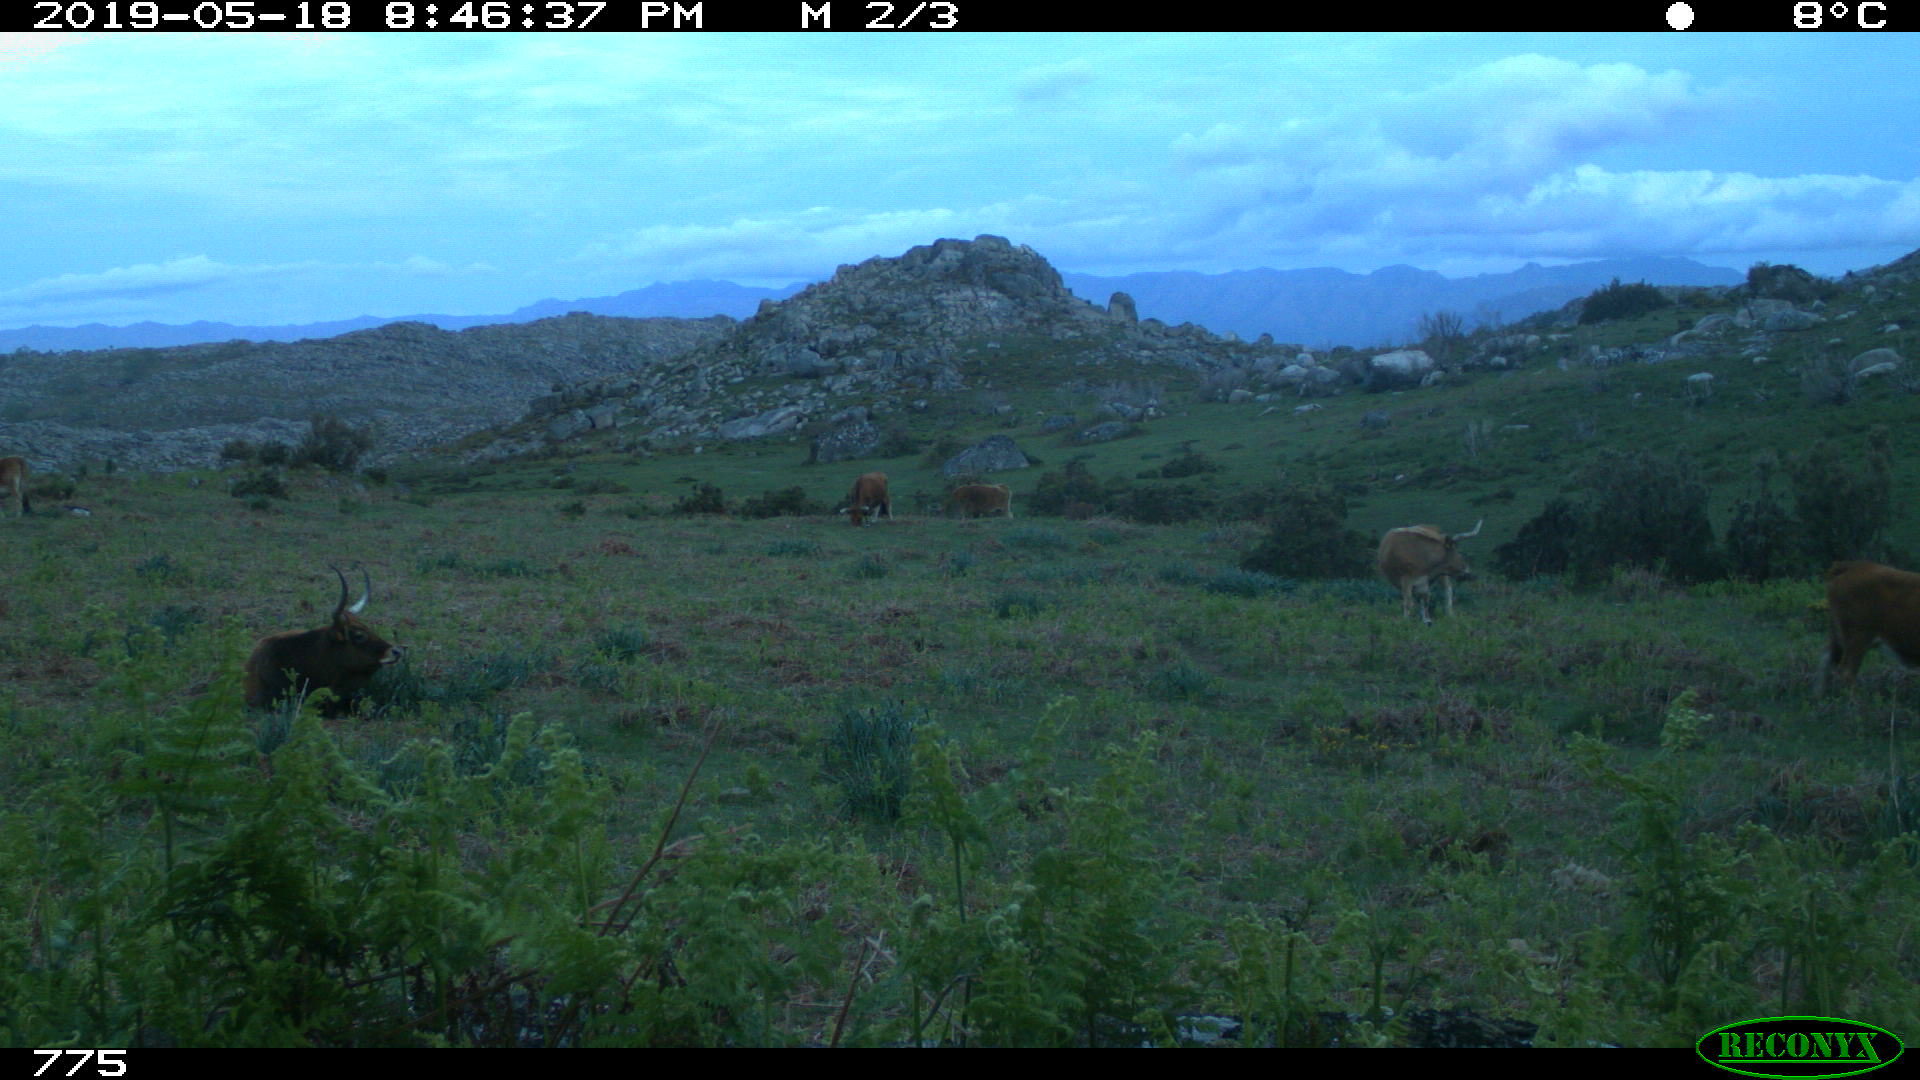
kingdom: Animalia
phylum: Chordata
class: Mammalia
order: Artiodactyla
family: Bovidae
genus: Bos
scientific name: Bos taurus
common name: Domesticated cattle
